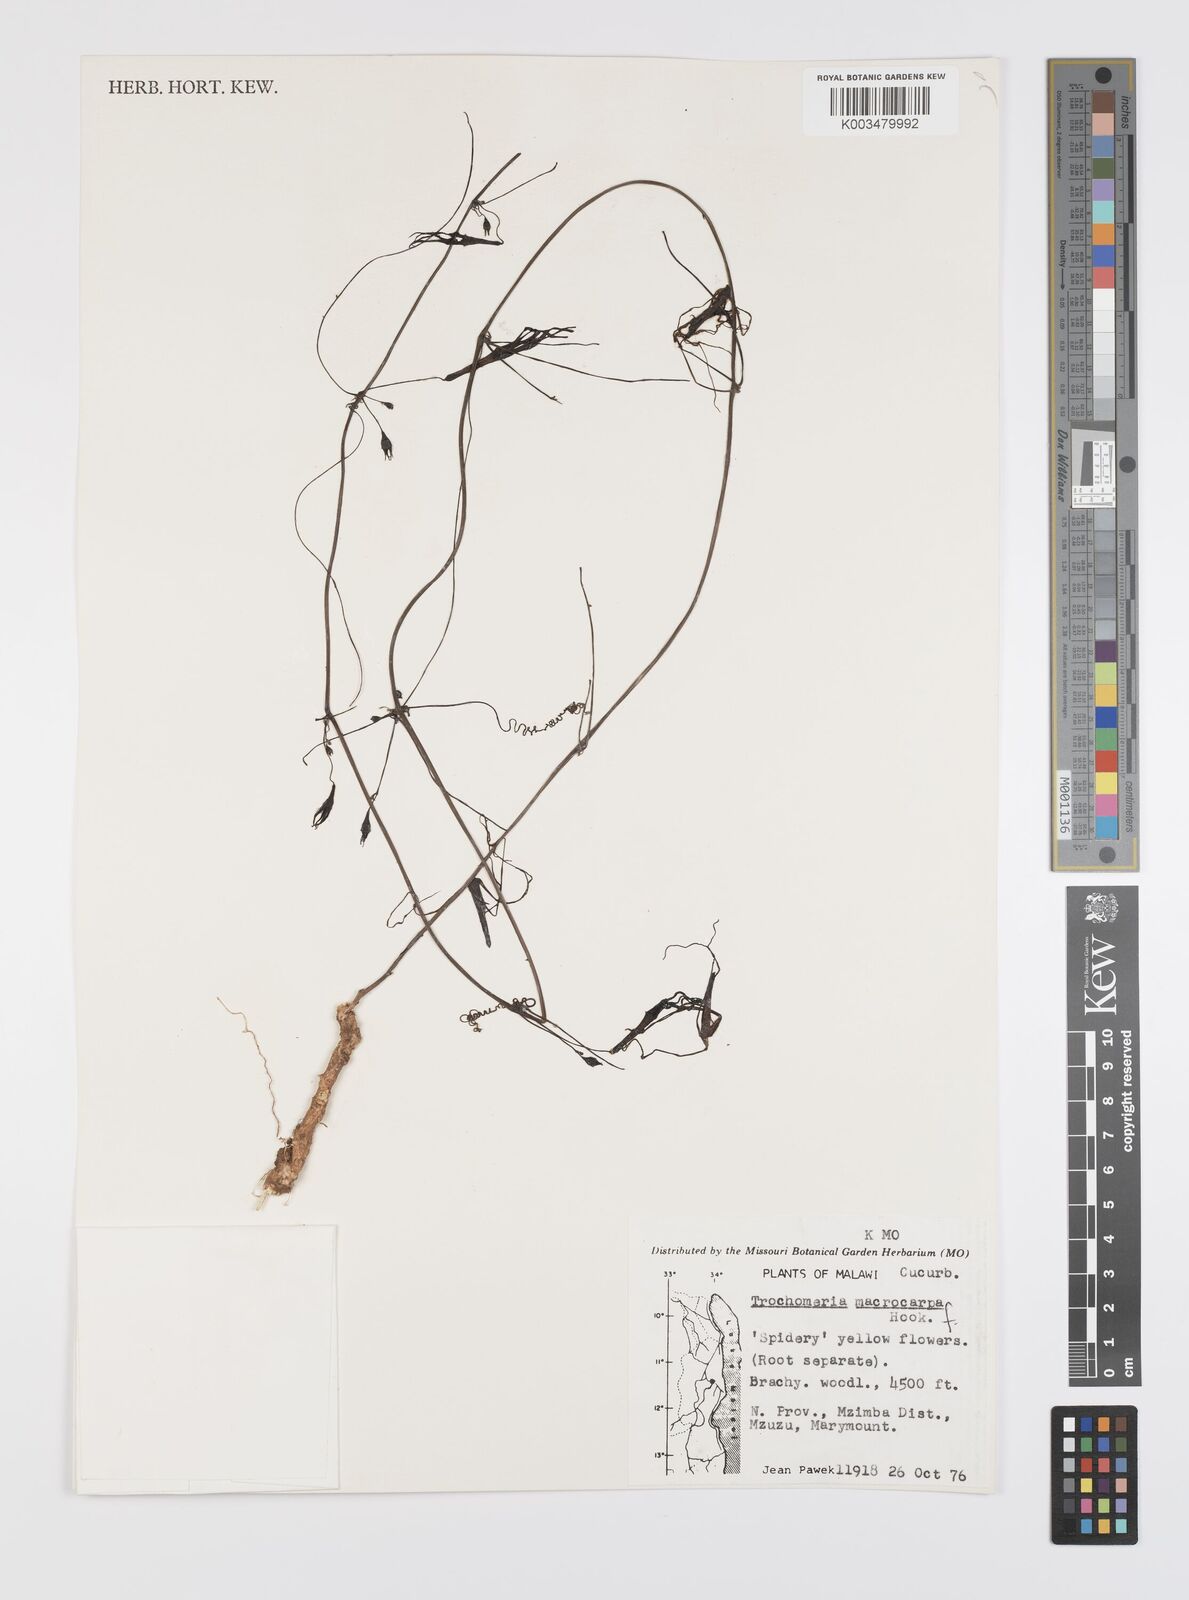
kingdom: Plantae
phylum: Tracheophyta
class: Magnoliopsida
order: Cucurbitales
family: Cucurbitaceae
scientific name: Cucurbitaceae
